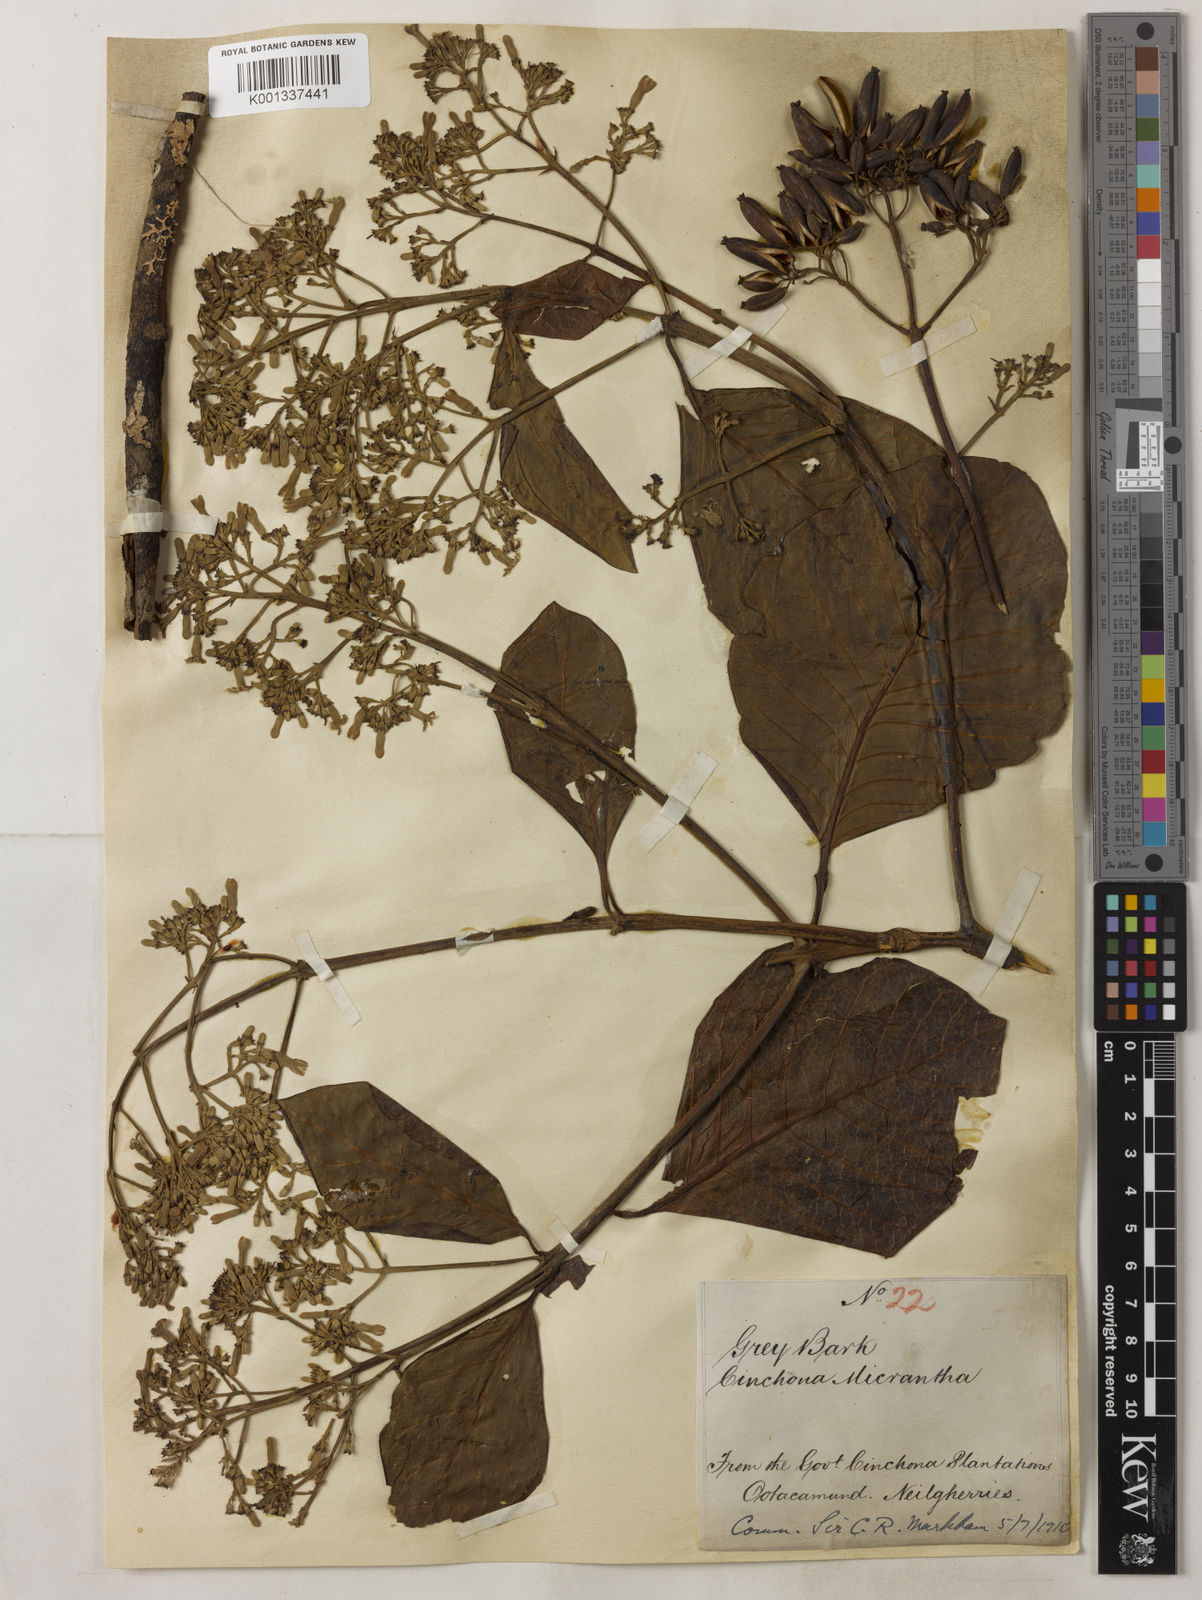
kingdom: Plantae
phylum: Tracheophyta
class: Magnoliopsida
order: Gentianales
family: Rubiaceae
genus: Cinchona
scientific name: Cinchona micrantha
